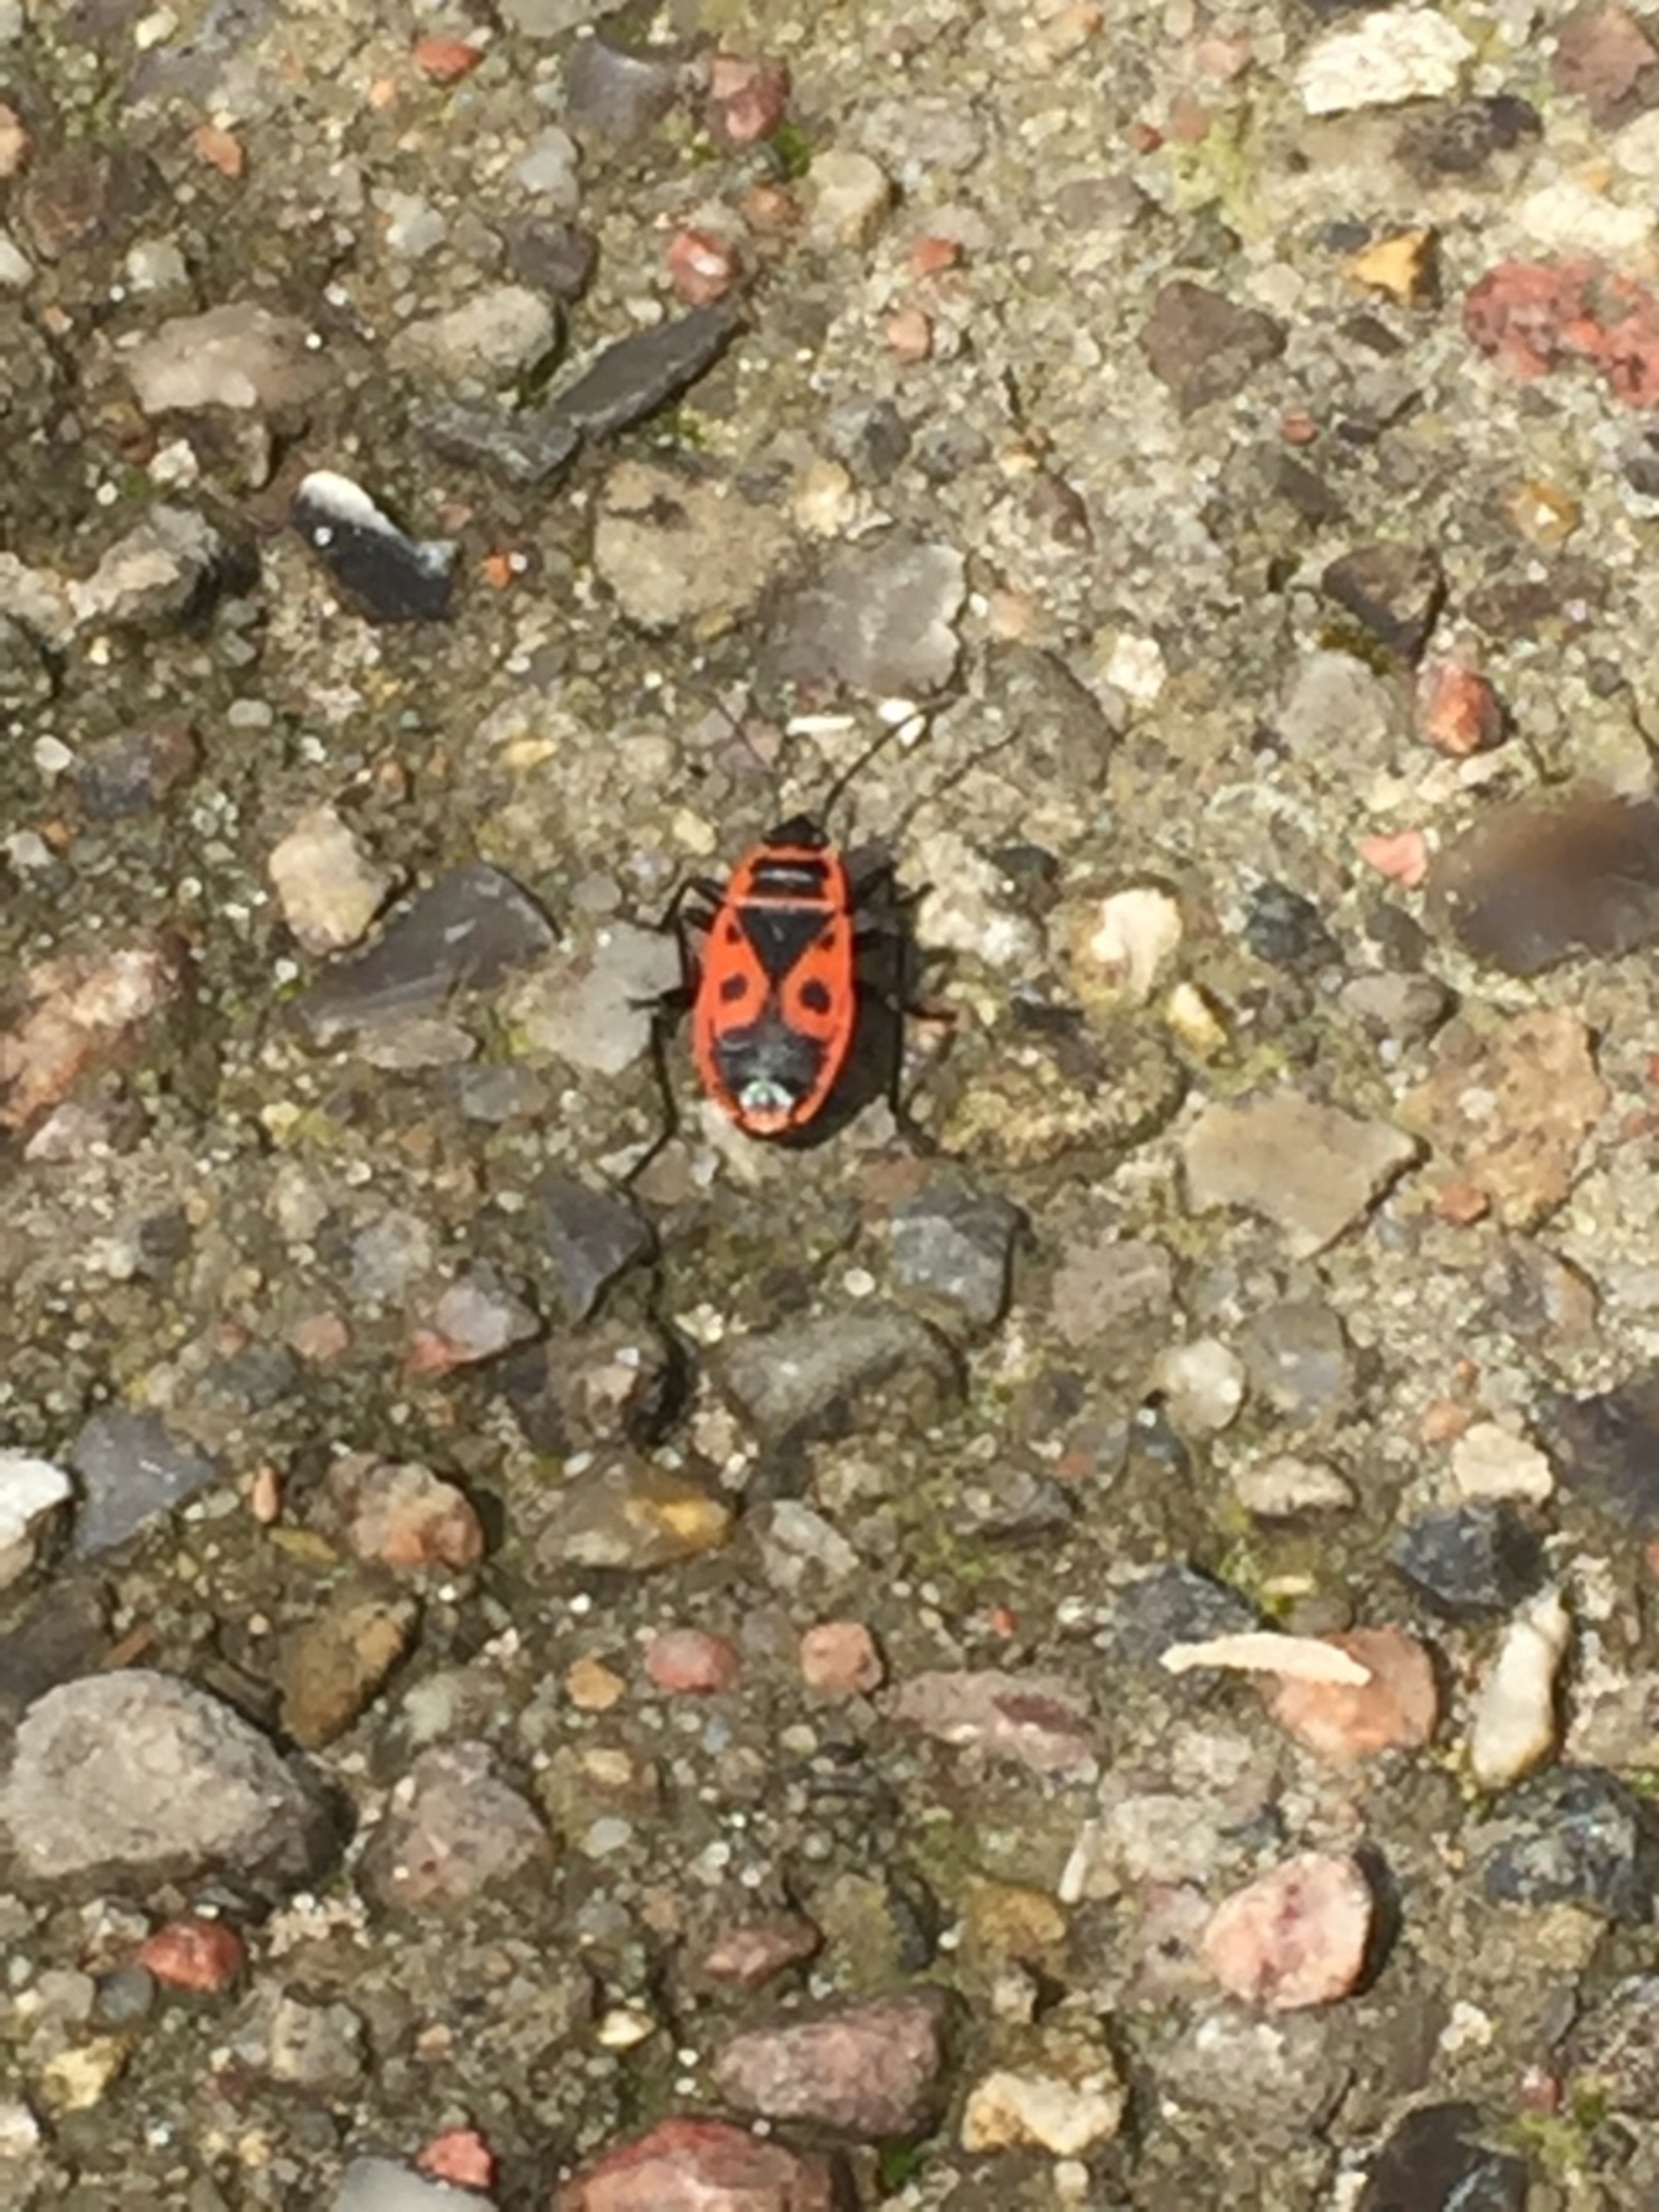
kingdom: Animalia
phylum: Arthropoda
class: Insecta
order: Hemiptera
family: Pyrrhocoridae
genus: Pyrrhocoris
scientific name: Pyrrhocoris apterus
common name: Ildtæge
